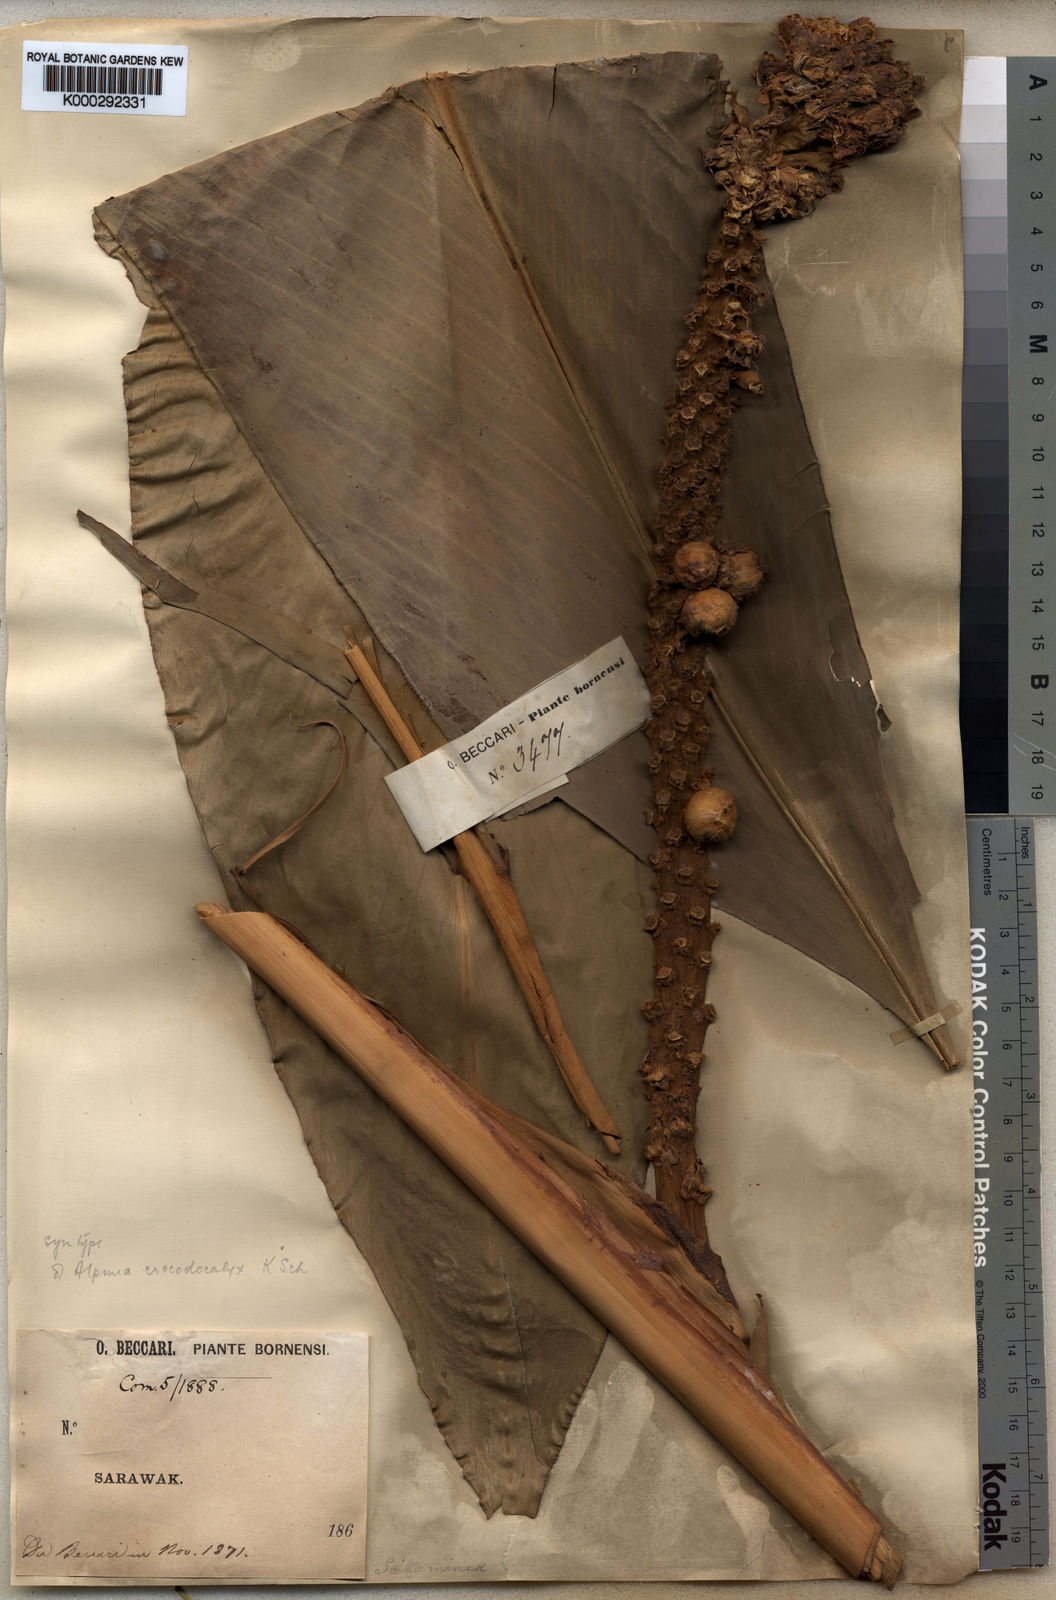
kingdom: Plantae
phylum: Tracheophyta
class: Liliopsida
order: Zingiberales
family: Zingiberaceae
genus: Plagiostachys
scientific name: Plagiostachys crocydocalyx
